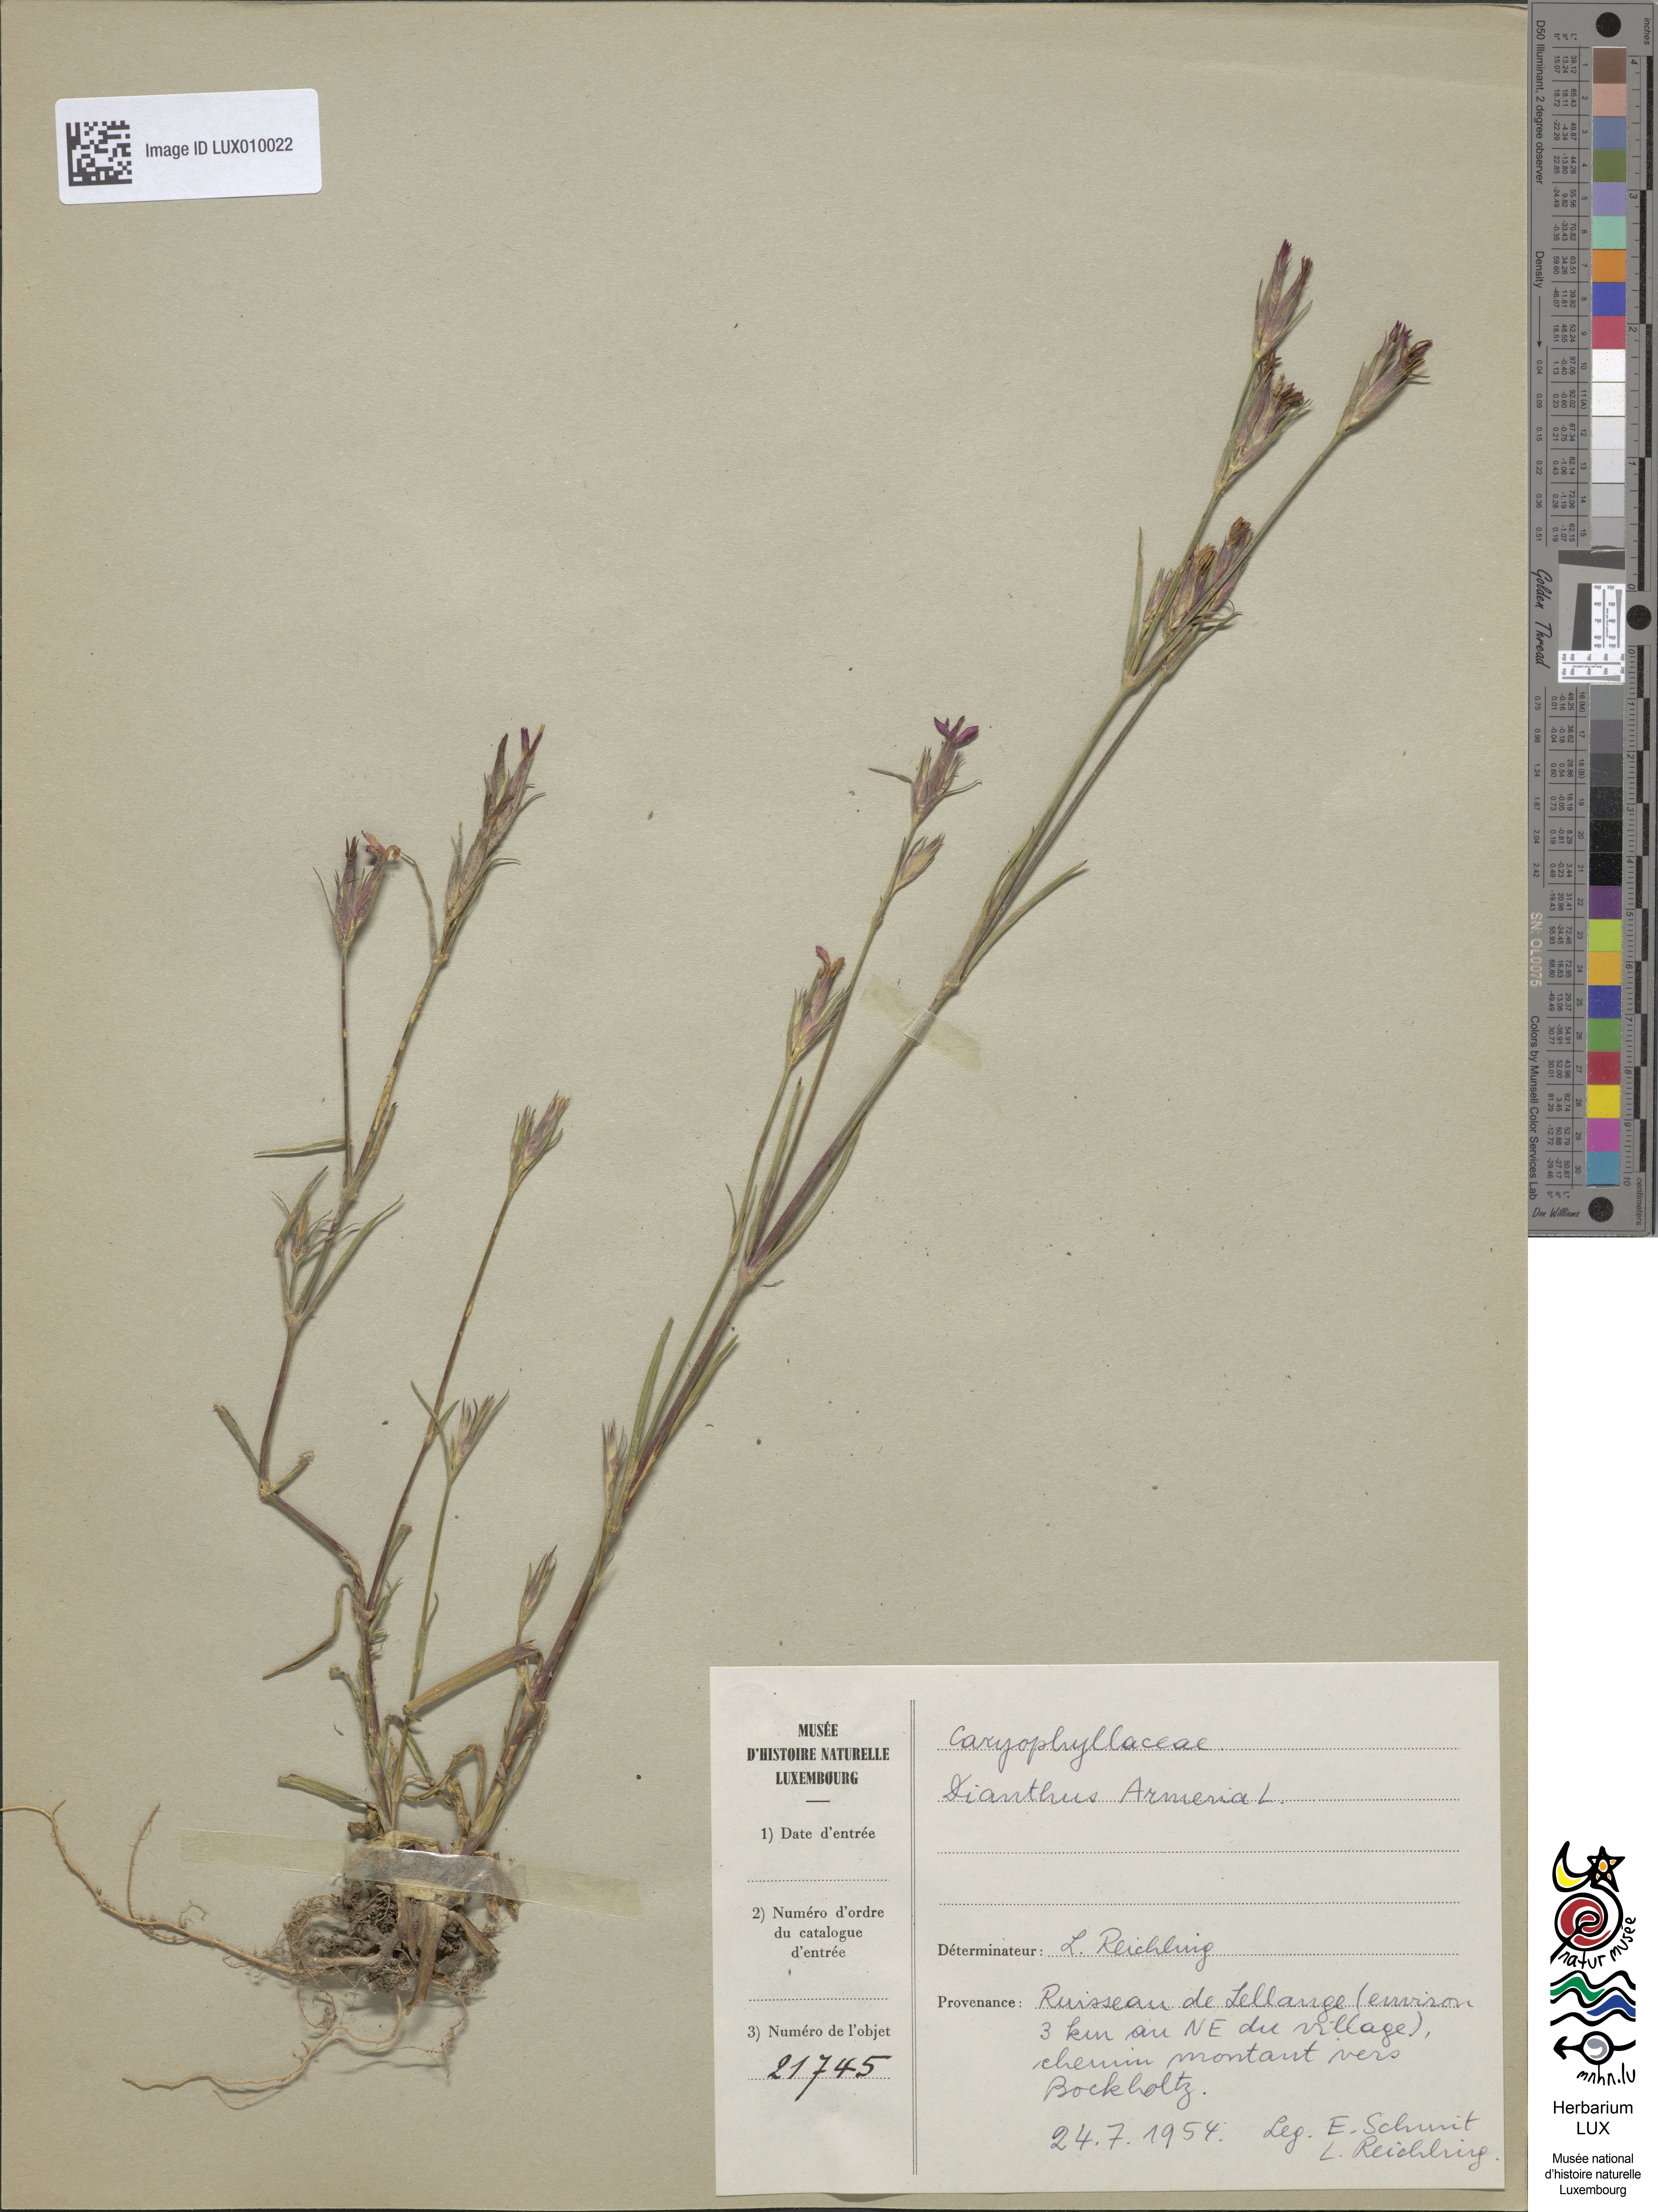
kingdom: Plantae
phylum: Tracheophyta
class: Magnoliopsida
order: Caryophyllales
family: Caryophyllaceae
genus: Dianthus
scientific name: Dianthus armeria
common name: Deptford pink
